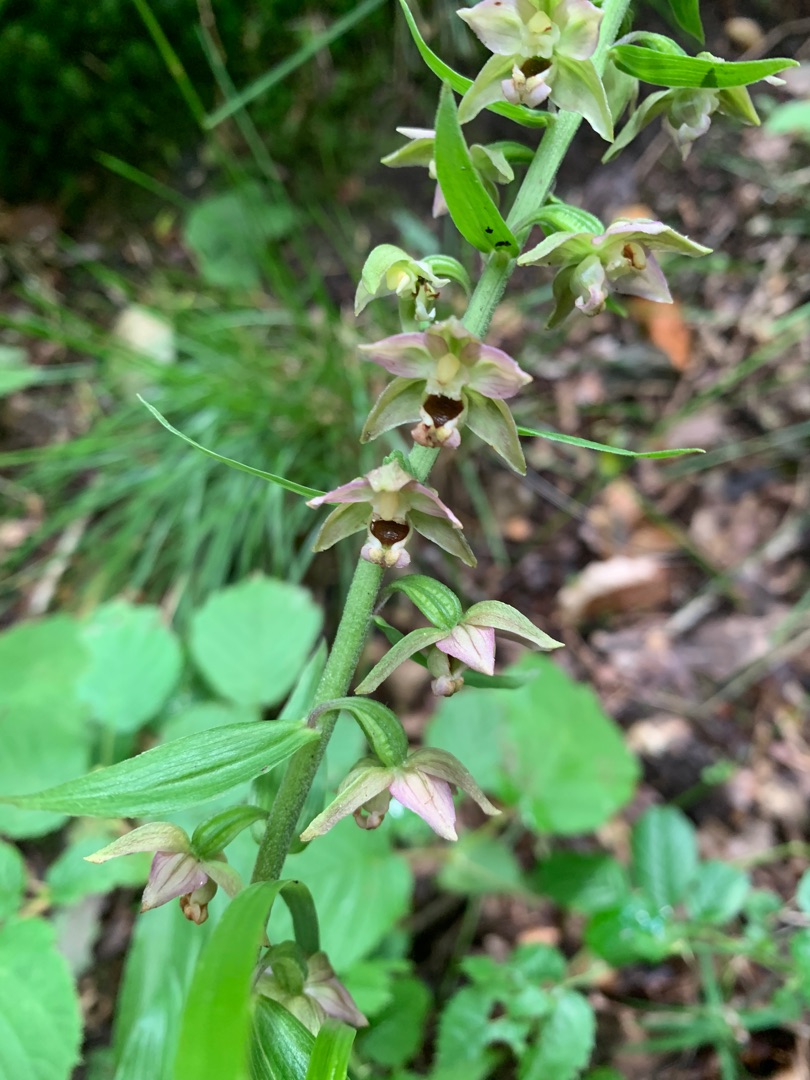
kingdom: Plantae
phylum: Tracheophyta
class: Liliopsida
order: Asparagales
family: Orchidaceae
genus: Epipactis
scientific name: Epipactis helleborine
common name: Skov-hullæbe
